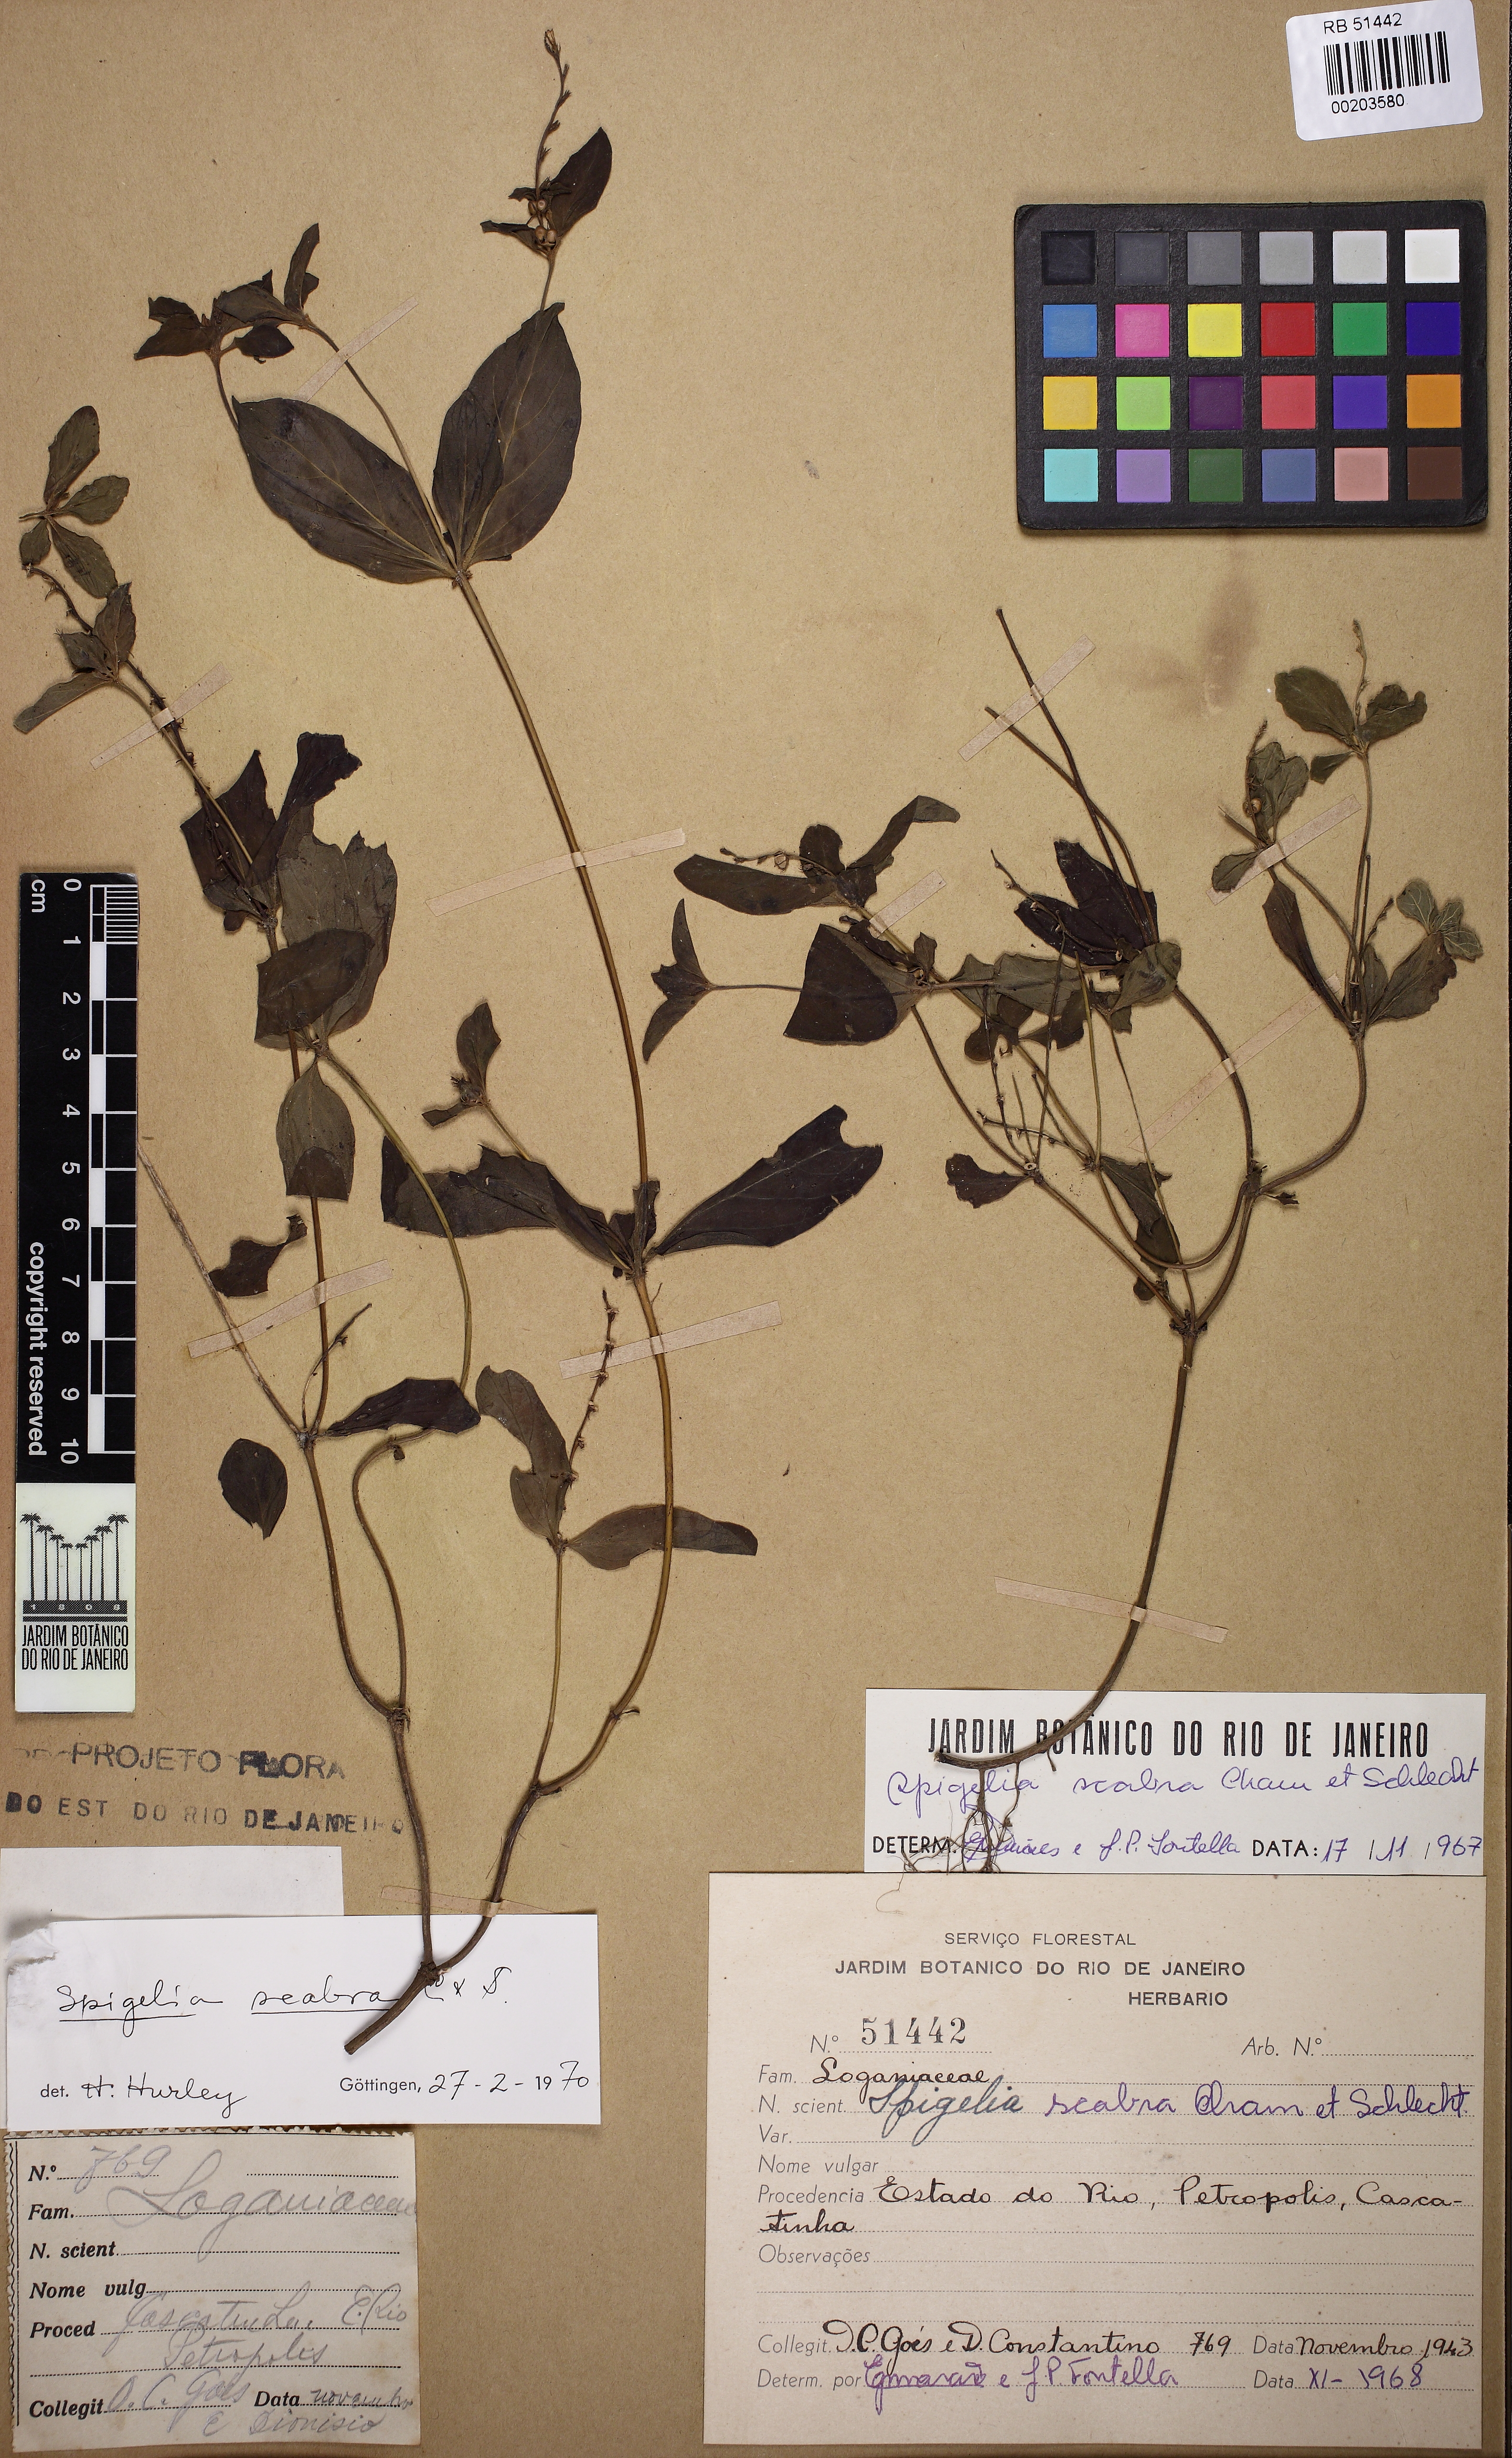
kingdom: Plantae
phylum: Tracheophyta
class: Magnoliopsida
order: Gentianales
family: Loganiaceae
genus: Spigelia
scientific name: Spigelia humboldtiana
